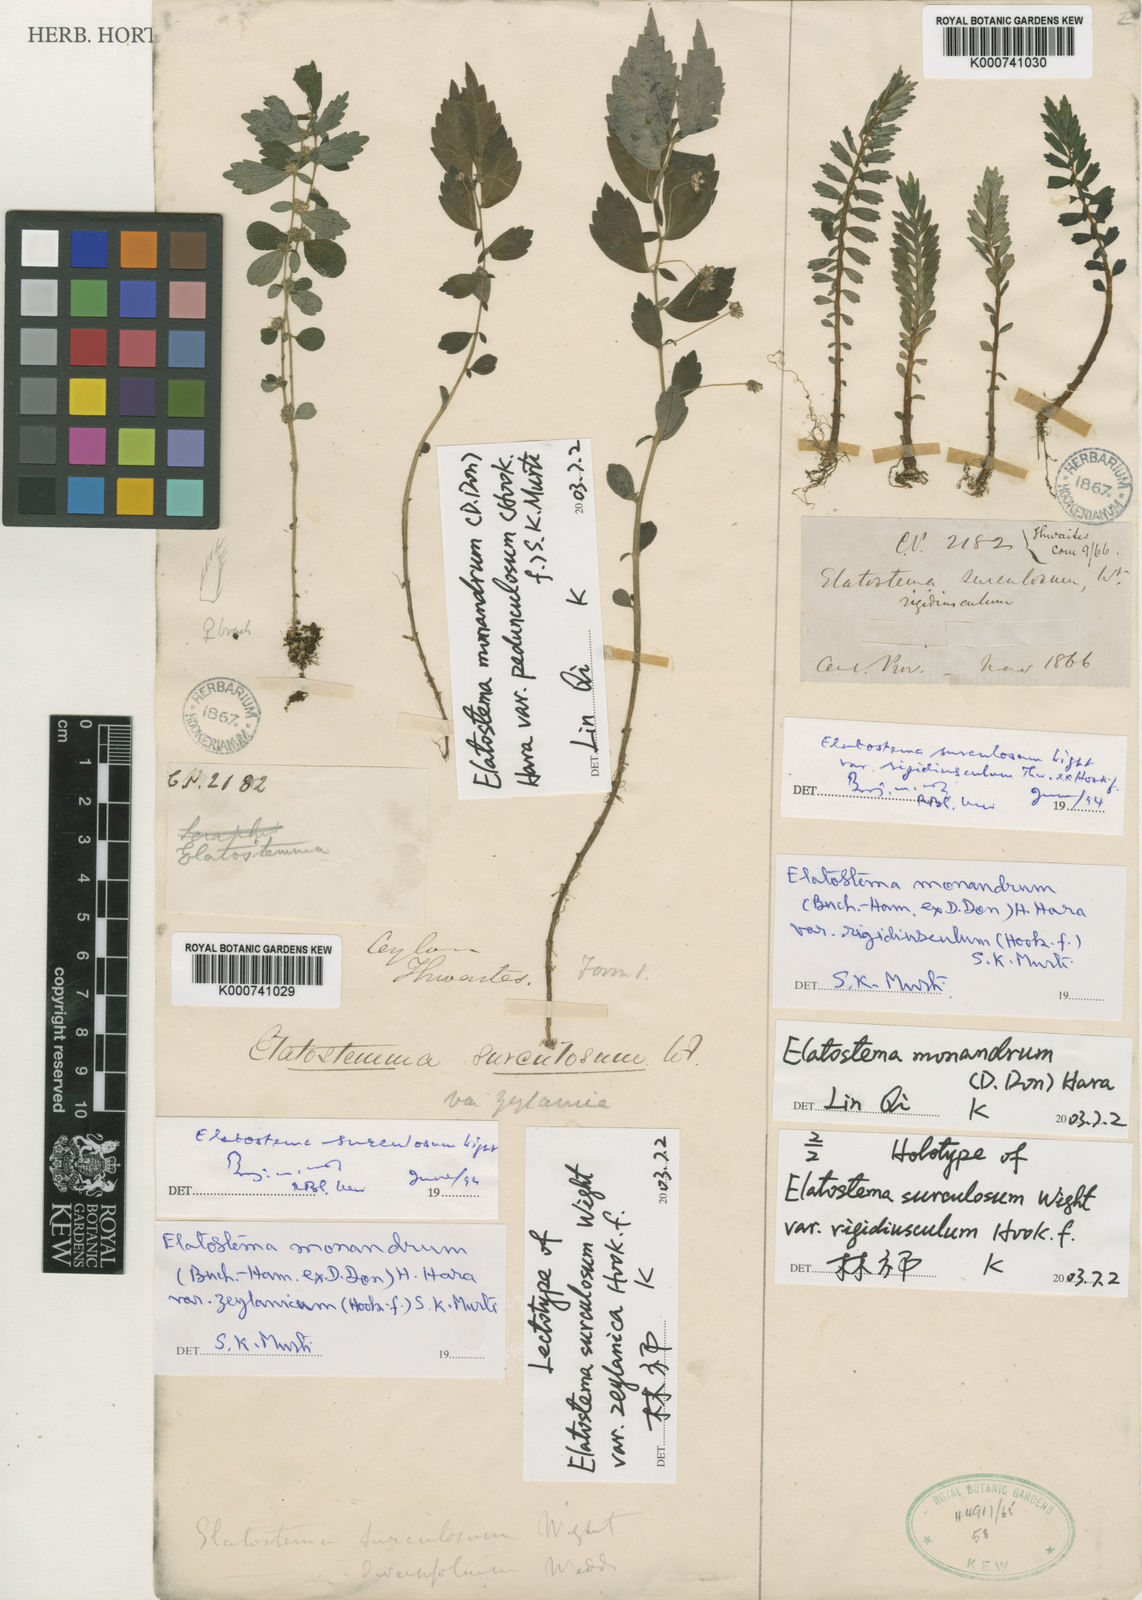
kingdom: Plantae
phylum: Tracheophyta
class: Magnoliopsida
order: Rosales
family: Urticaceae
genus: Elatostema
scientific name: Elatostema monandrum
